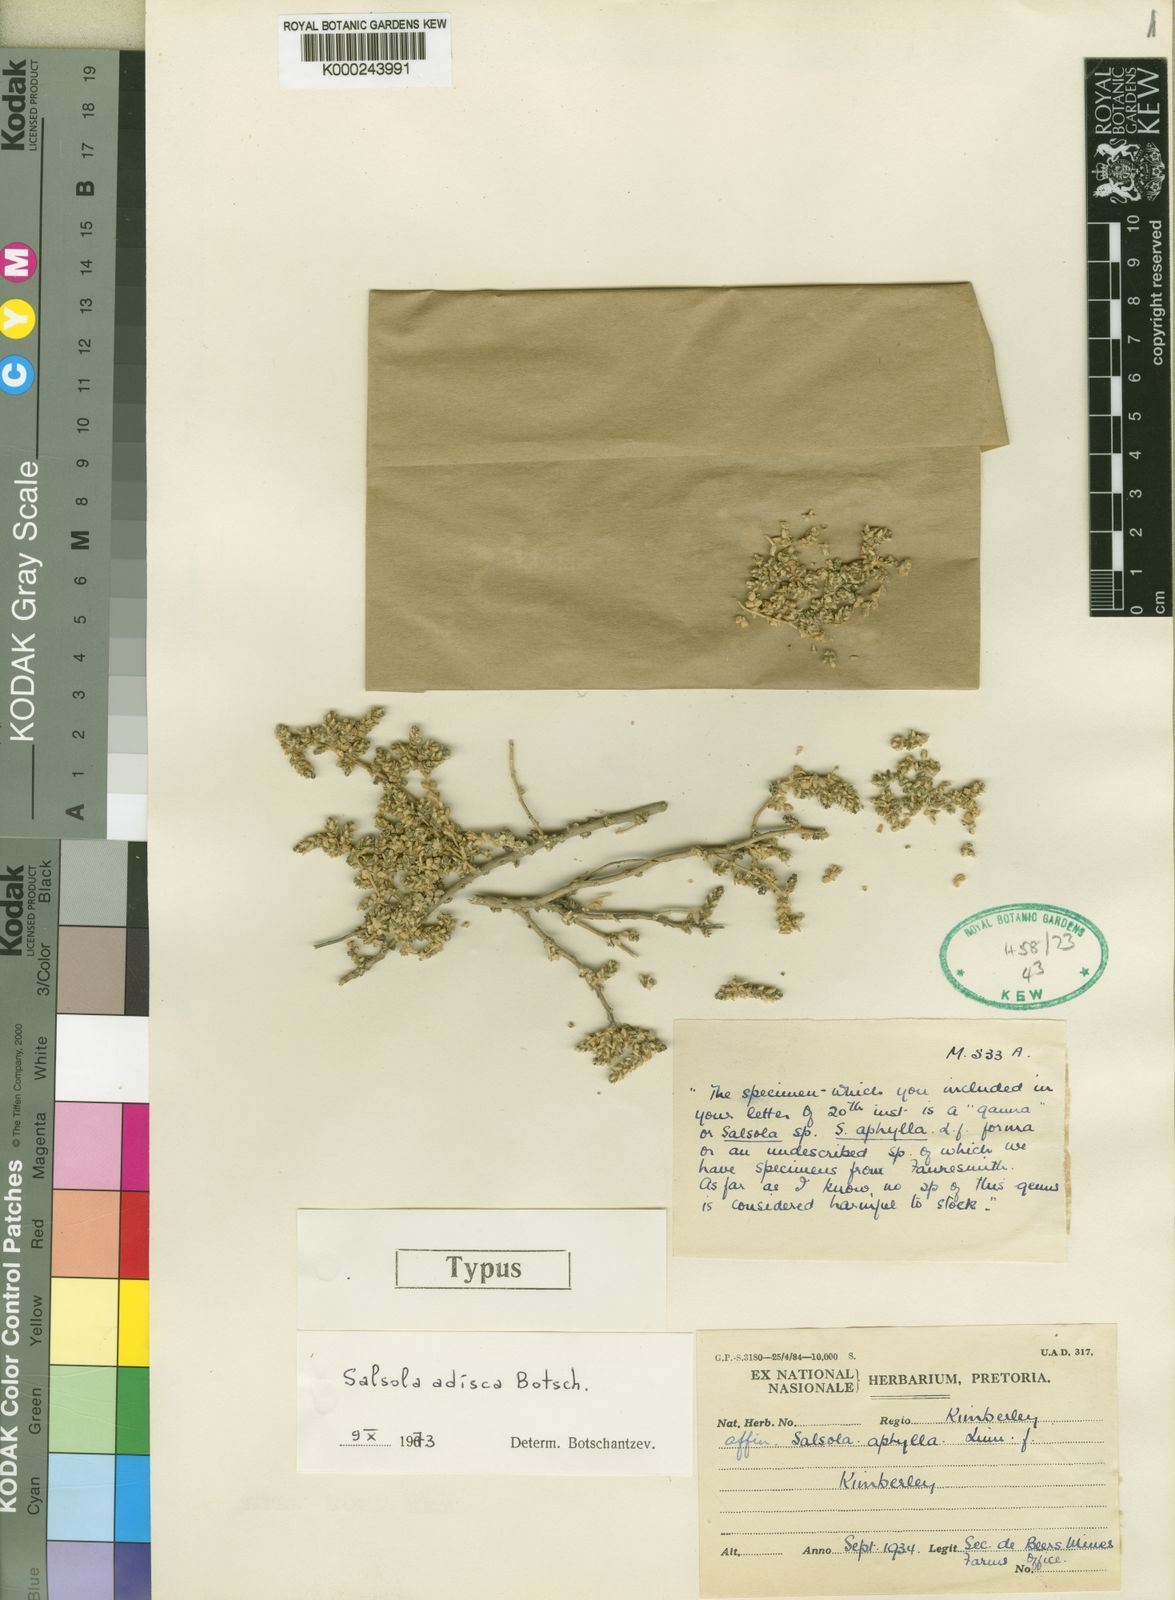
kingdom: Plantae
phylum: Tracheophyta
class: Magnoliopsida
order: Caryophyllales
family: Amaranthaceae
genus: Caroxylon
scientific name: Caroxylon adiscum
